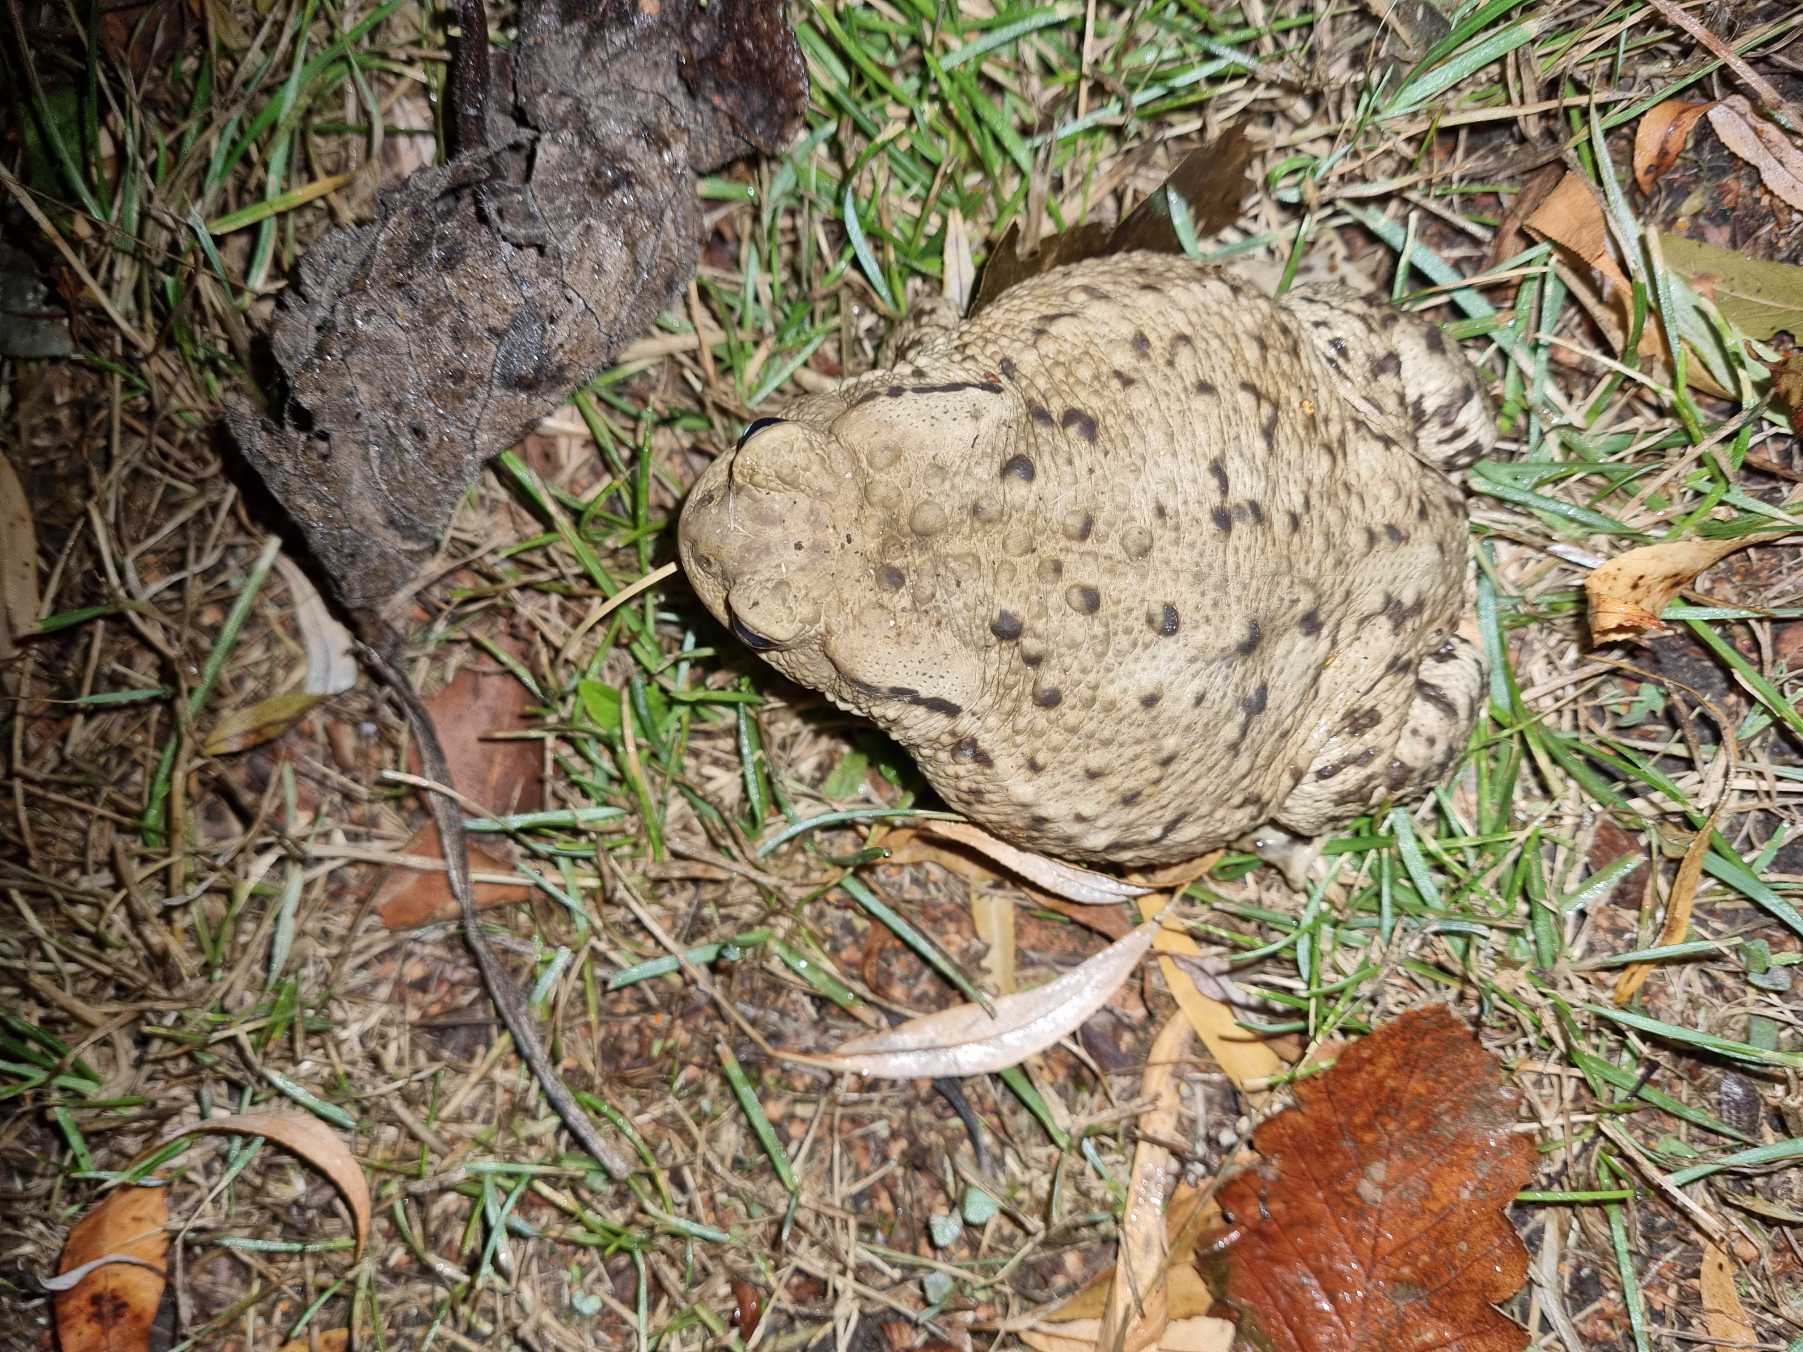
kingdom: Animalia
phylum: Chordata
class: Amphibia
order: Anura
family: Bufonidae
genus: Bufo
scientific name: Bufo bufo
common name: Skrubtudse
